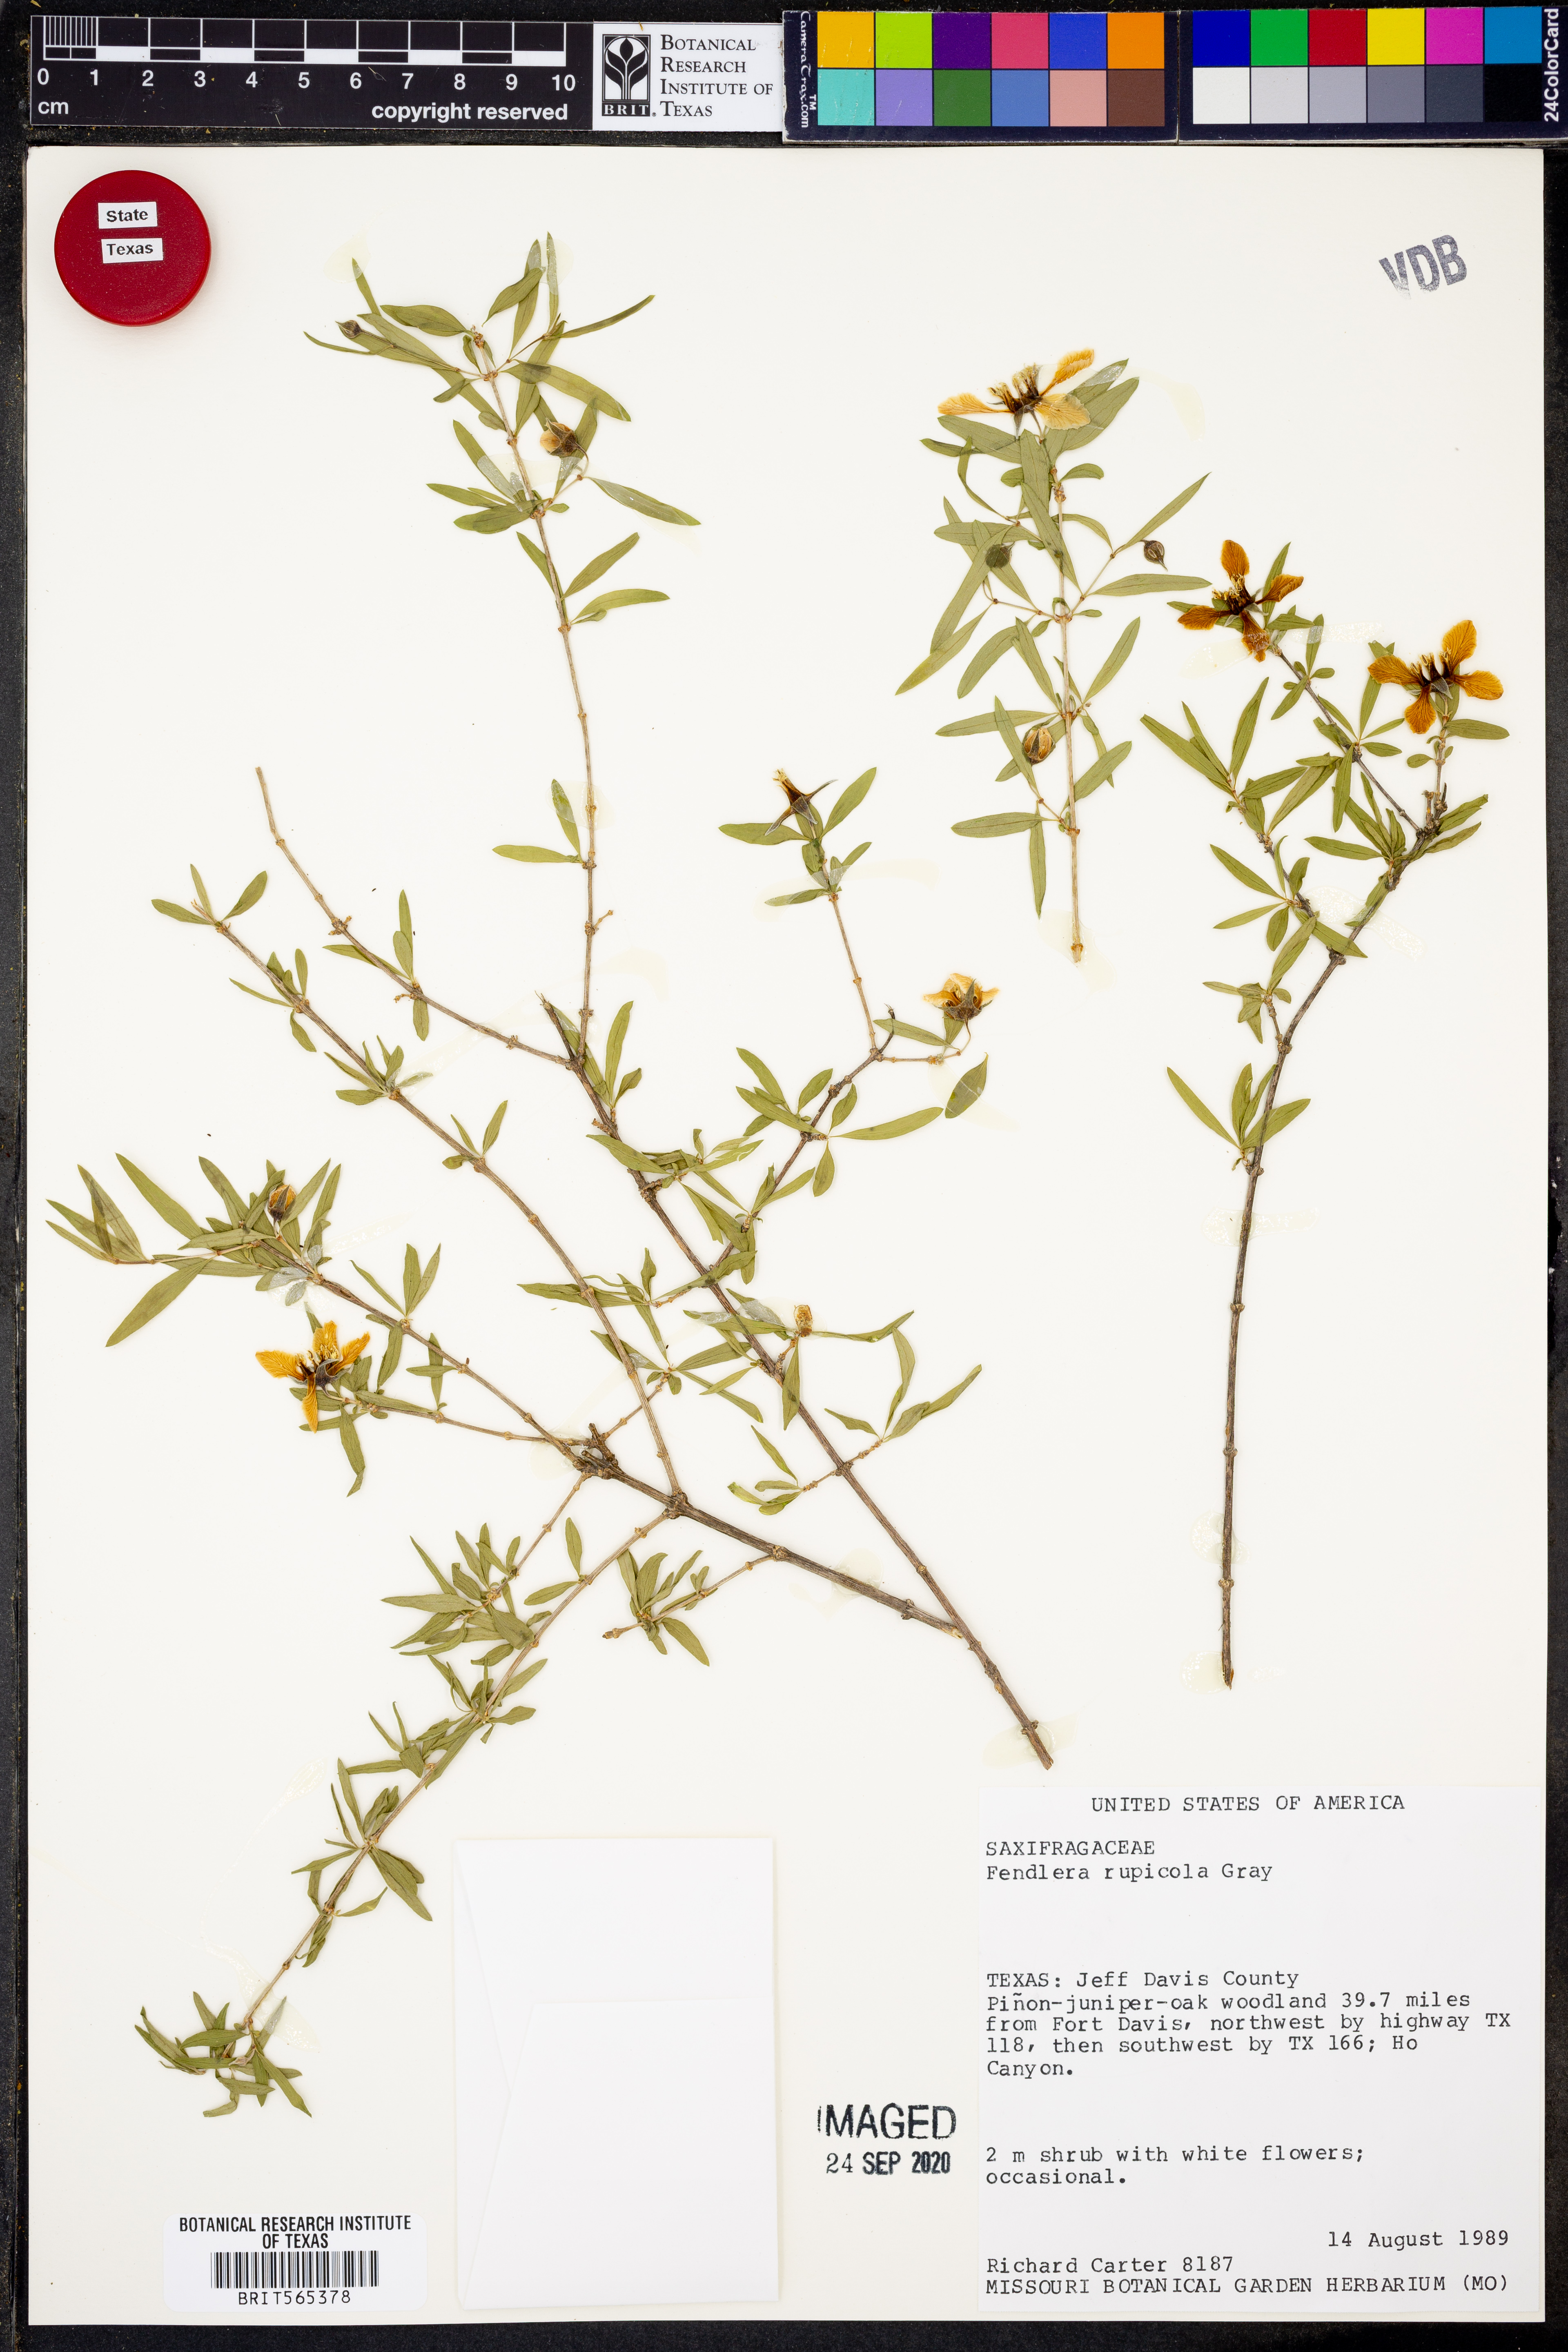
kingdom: Plantae
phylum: Tracheophyta
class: Magnoliopsida
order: Cornales
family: Hydrangeaceae
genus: Fendlera
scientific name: Fendlera rupicola
